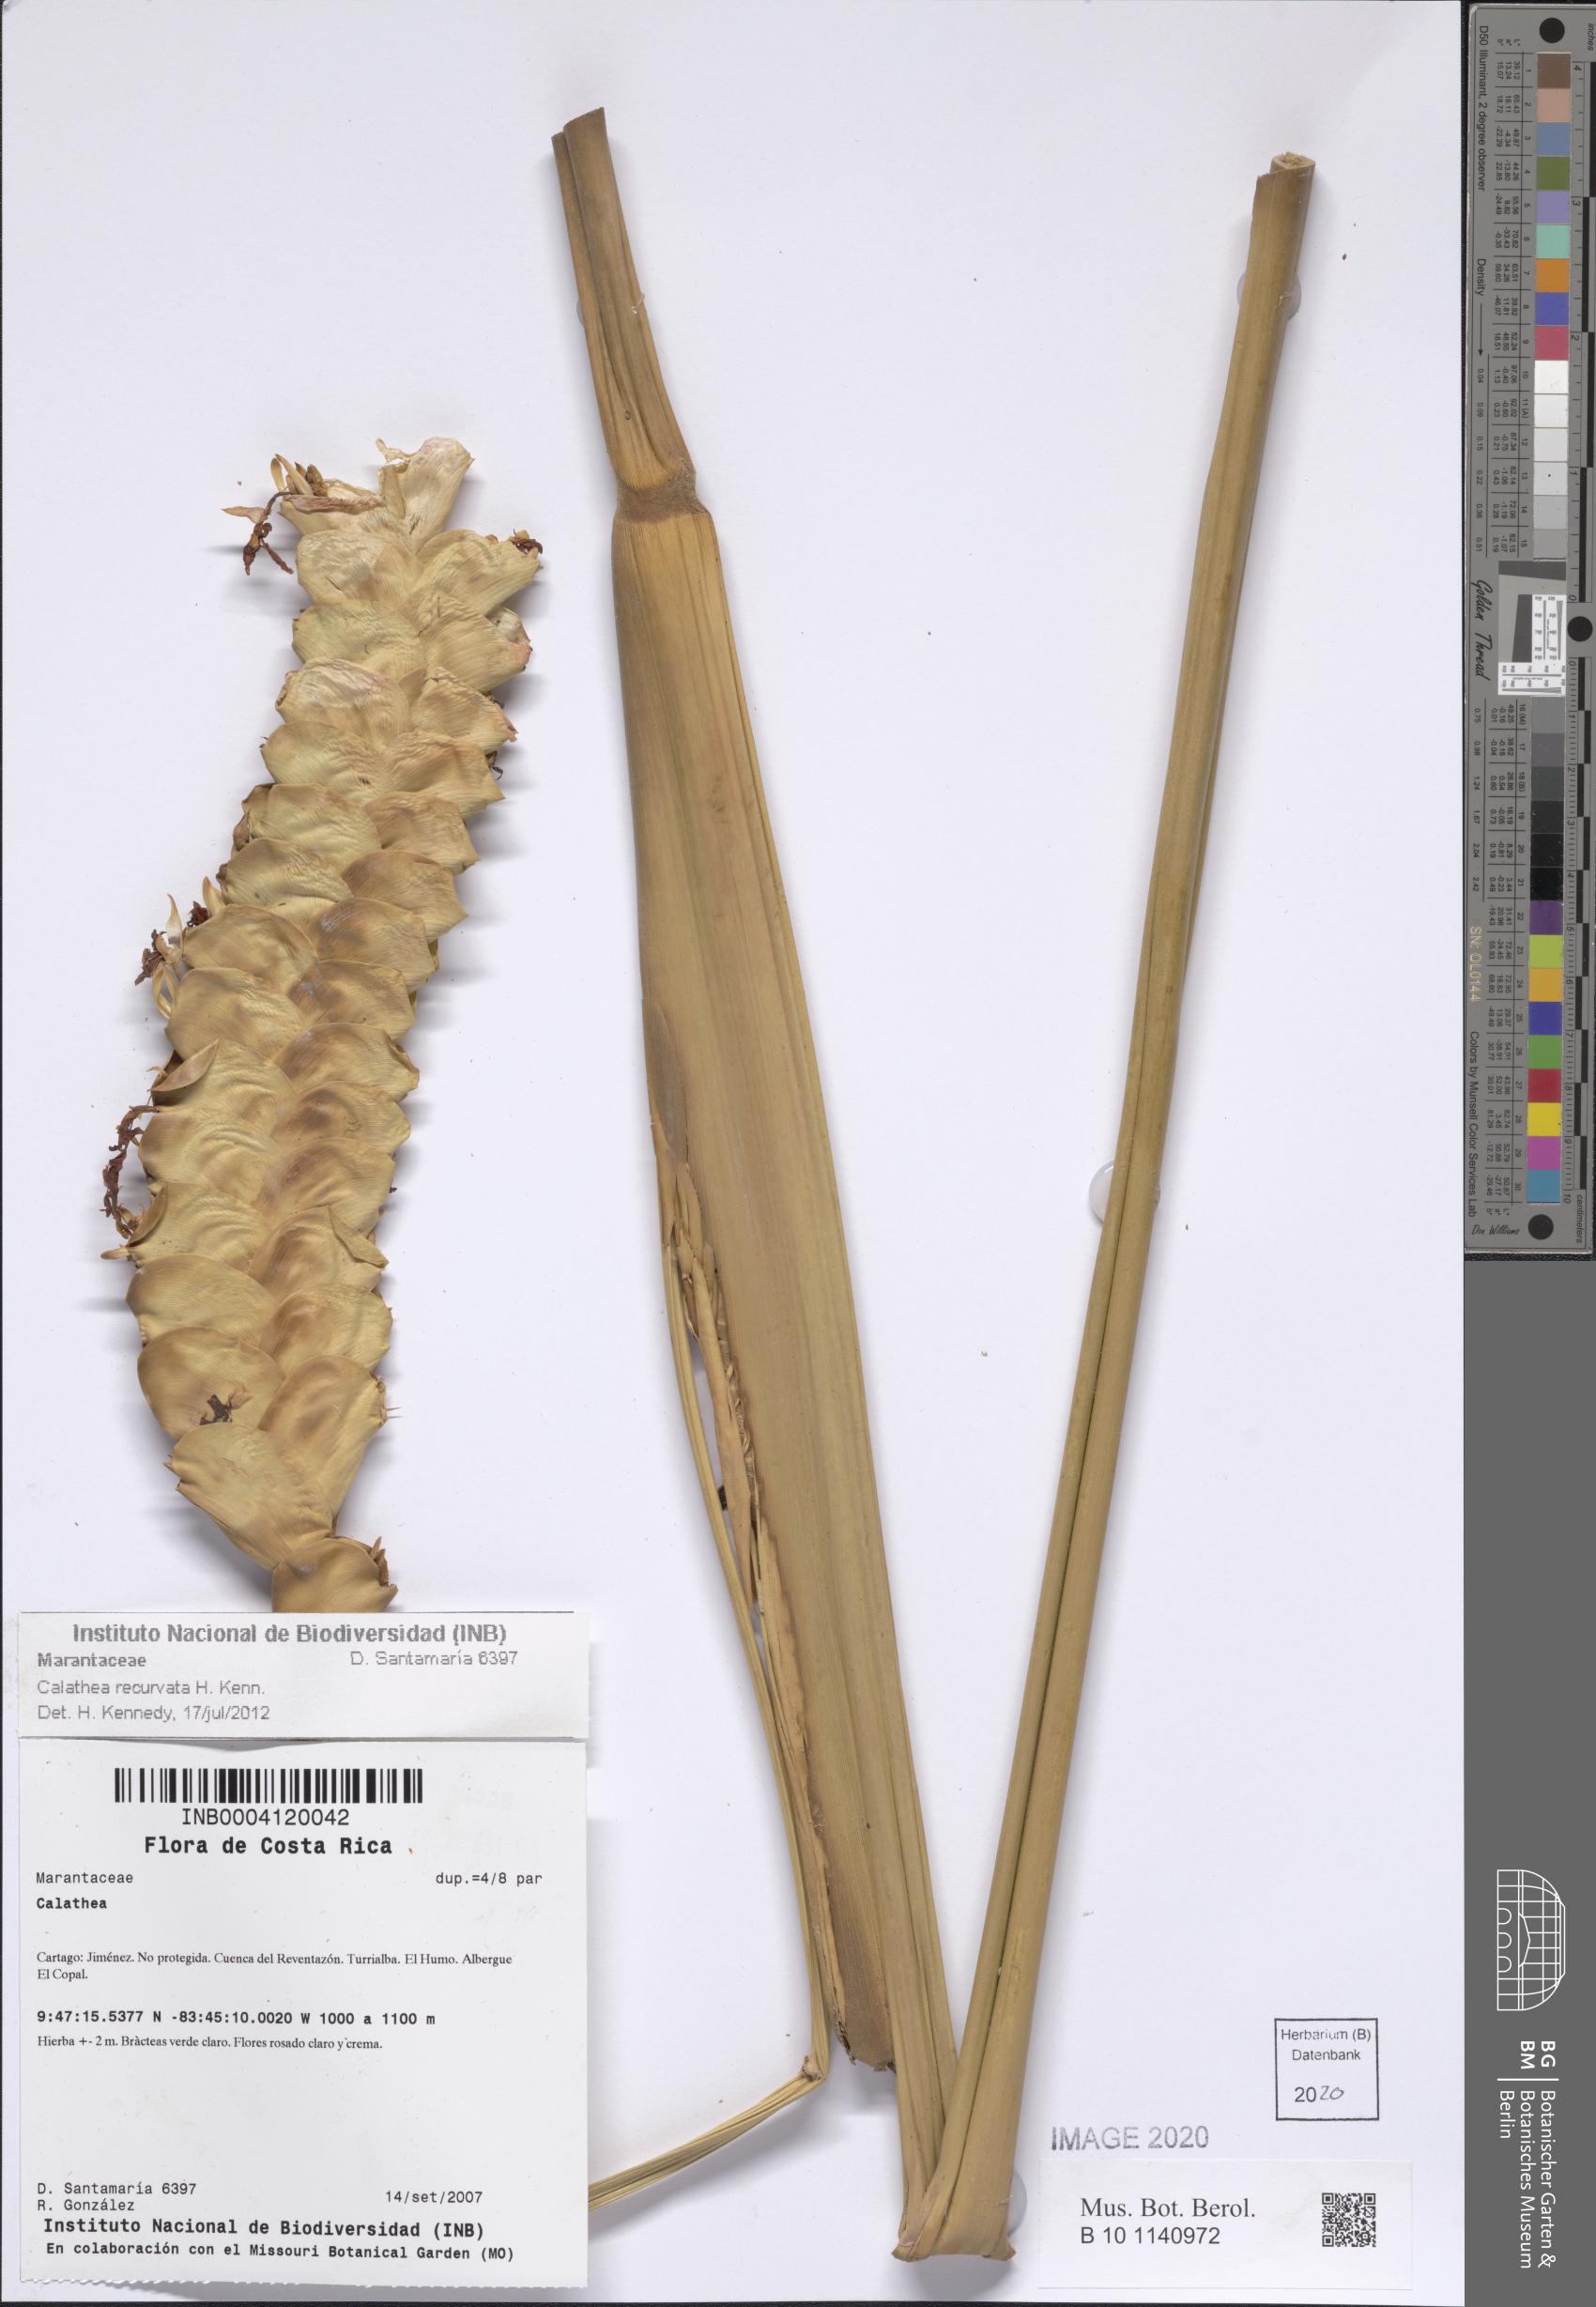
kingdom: Plantae
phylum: Tracheophyta
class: Liliopsida
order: Zingiberales
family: Marantaceae
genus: Calathea
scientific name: Calathea recurvata
